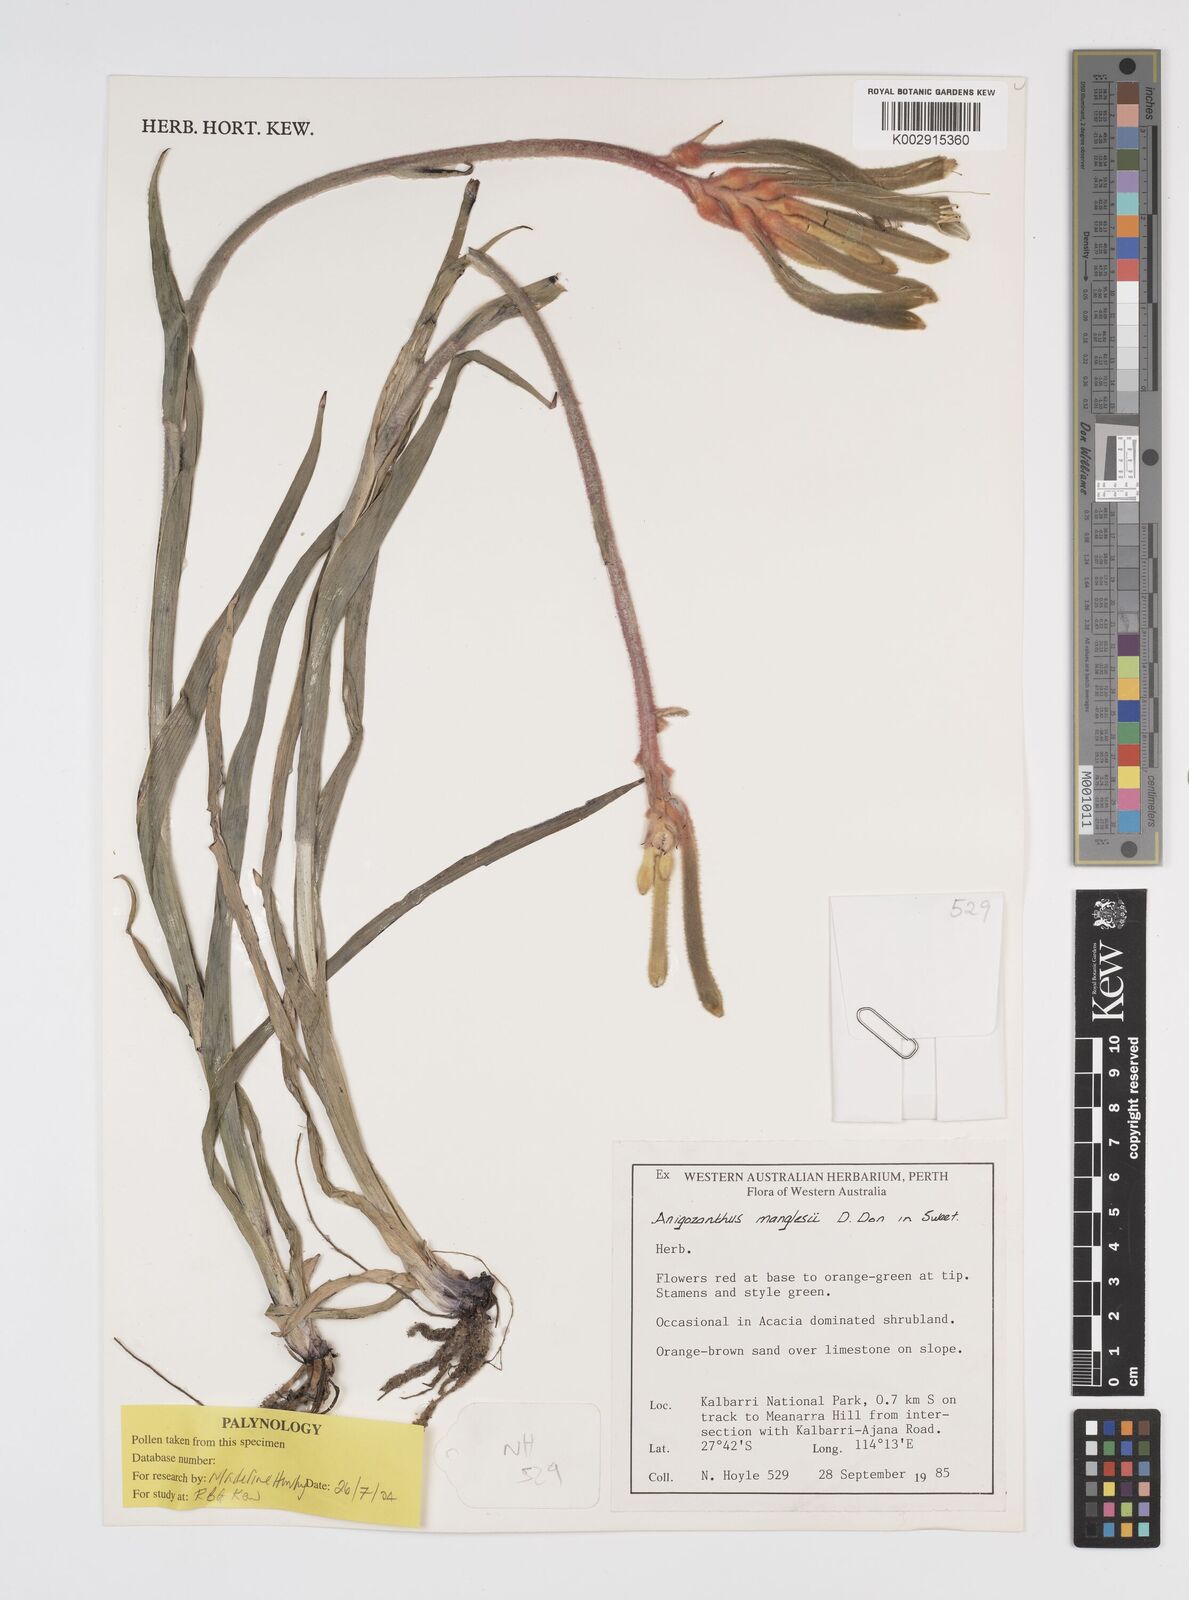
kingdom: Plantae
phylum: Tracheophyta
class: Liliopsida
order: Commelinales
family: Haemodoraceae
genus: Anigozanthos
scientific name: Anigozanthos manglesii
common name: Mangles's kangaroo-paw
